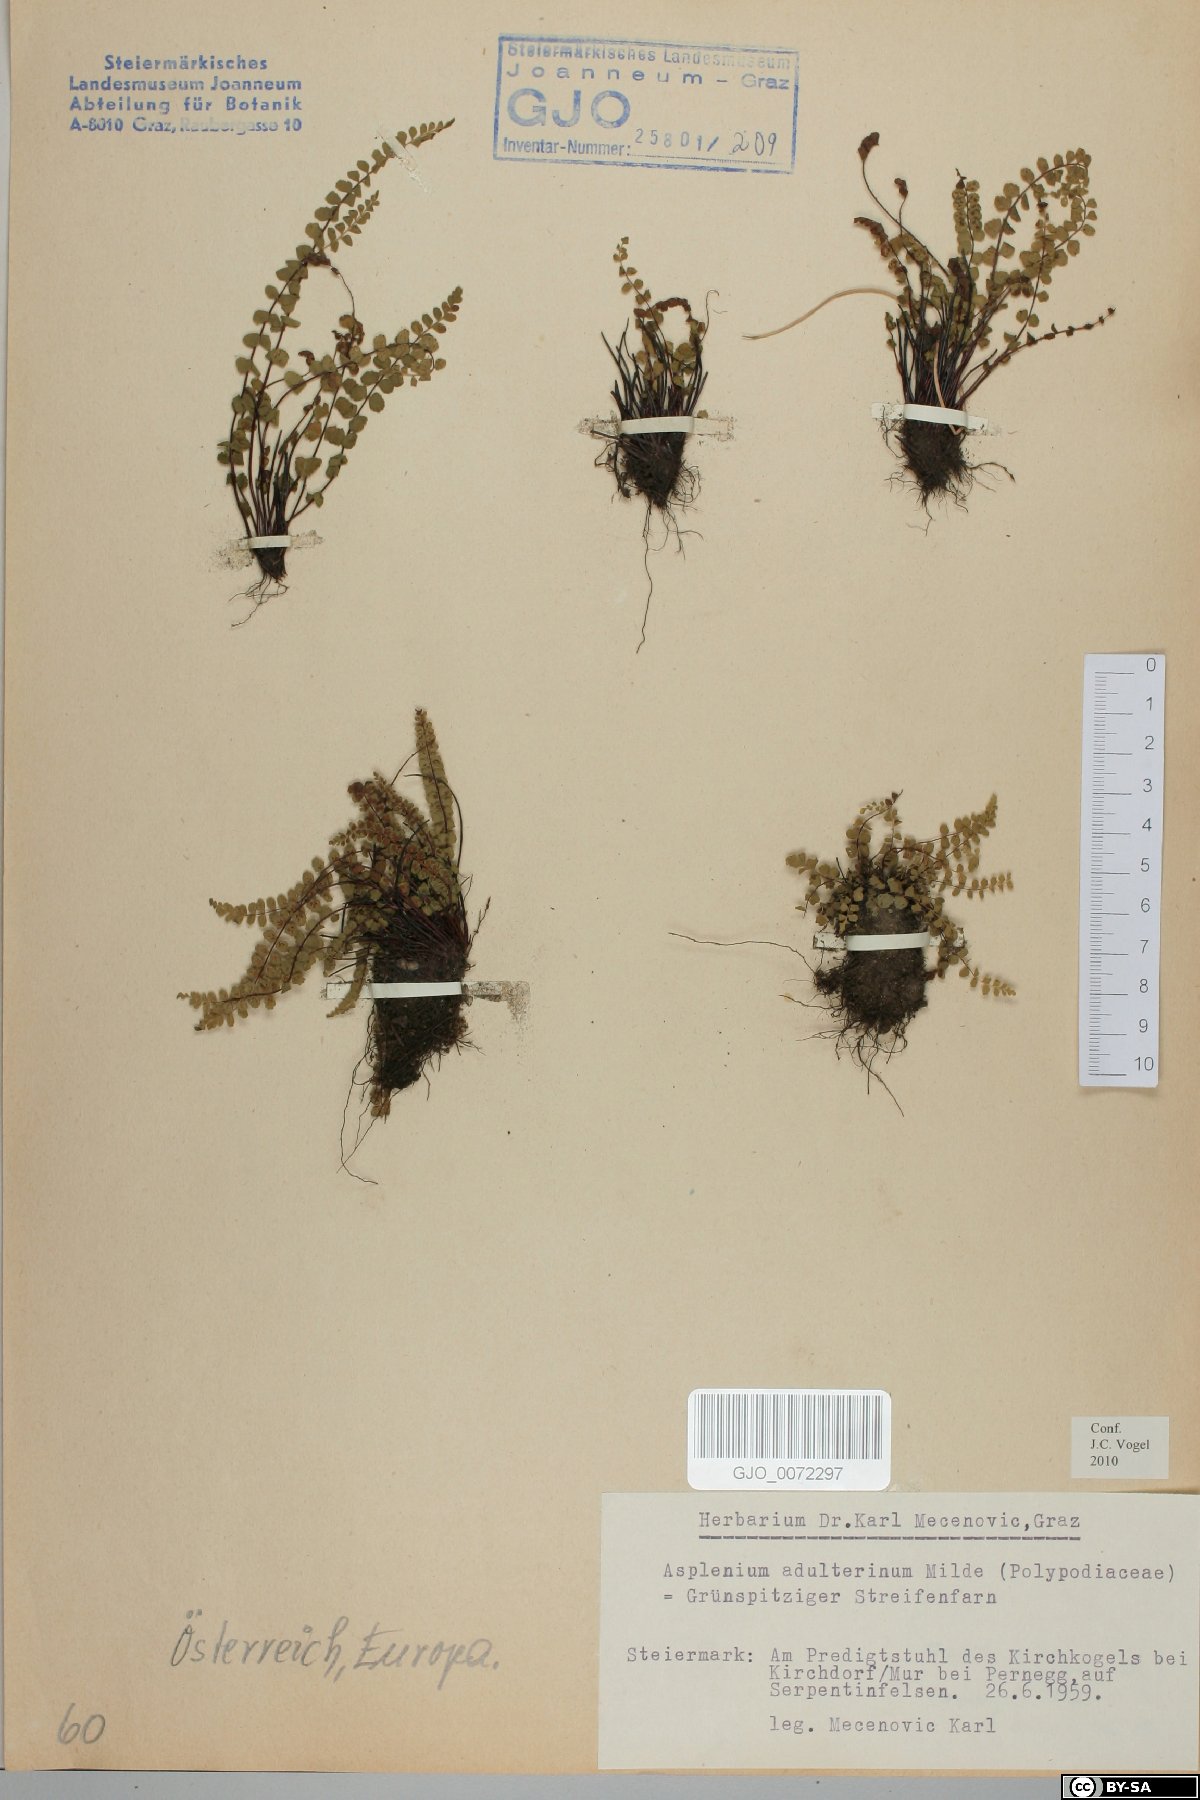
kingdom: Plantae
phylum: Tracheophyta
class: Polypodiopsida
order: Polypodiales
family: Aspleniaceae
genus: Asplenium
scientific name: Asplenium adulterinum
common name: Adulterated spleenwort
